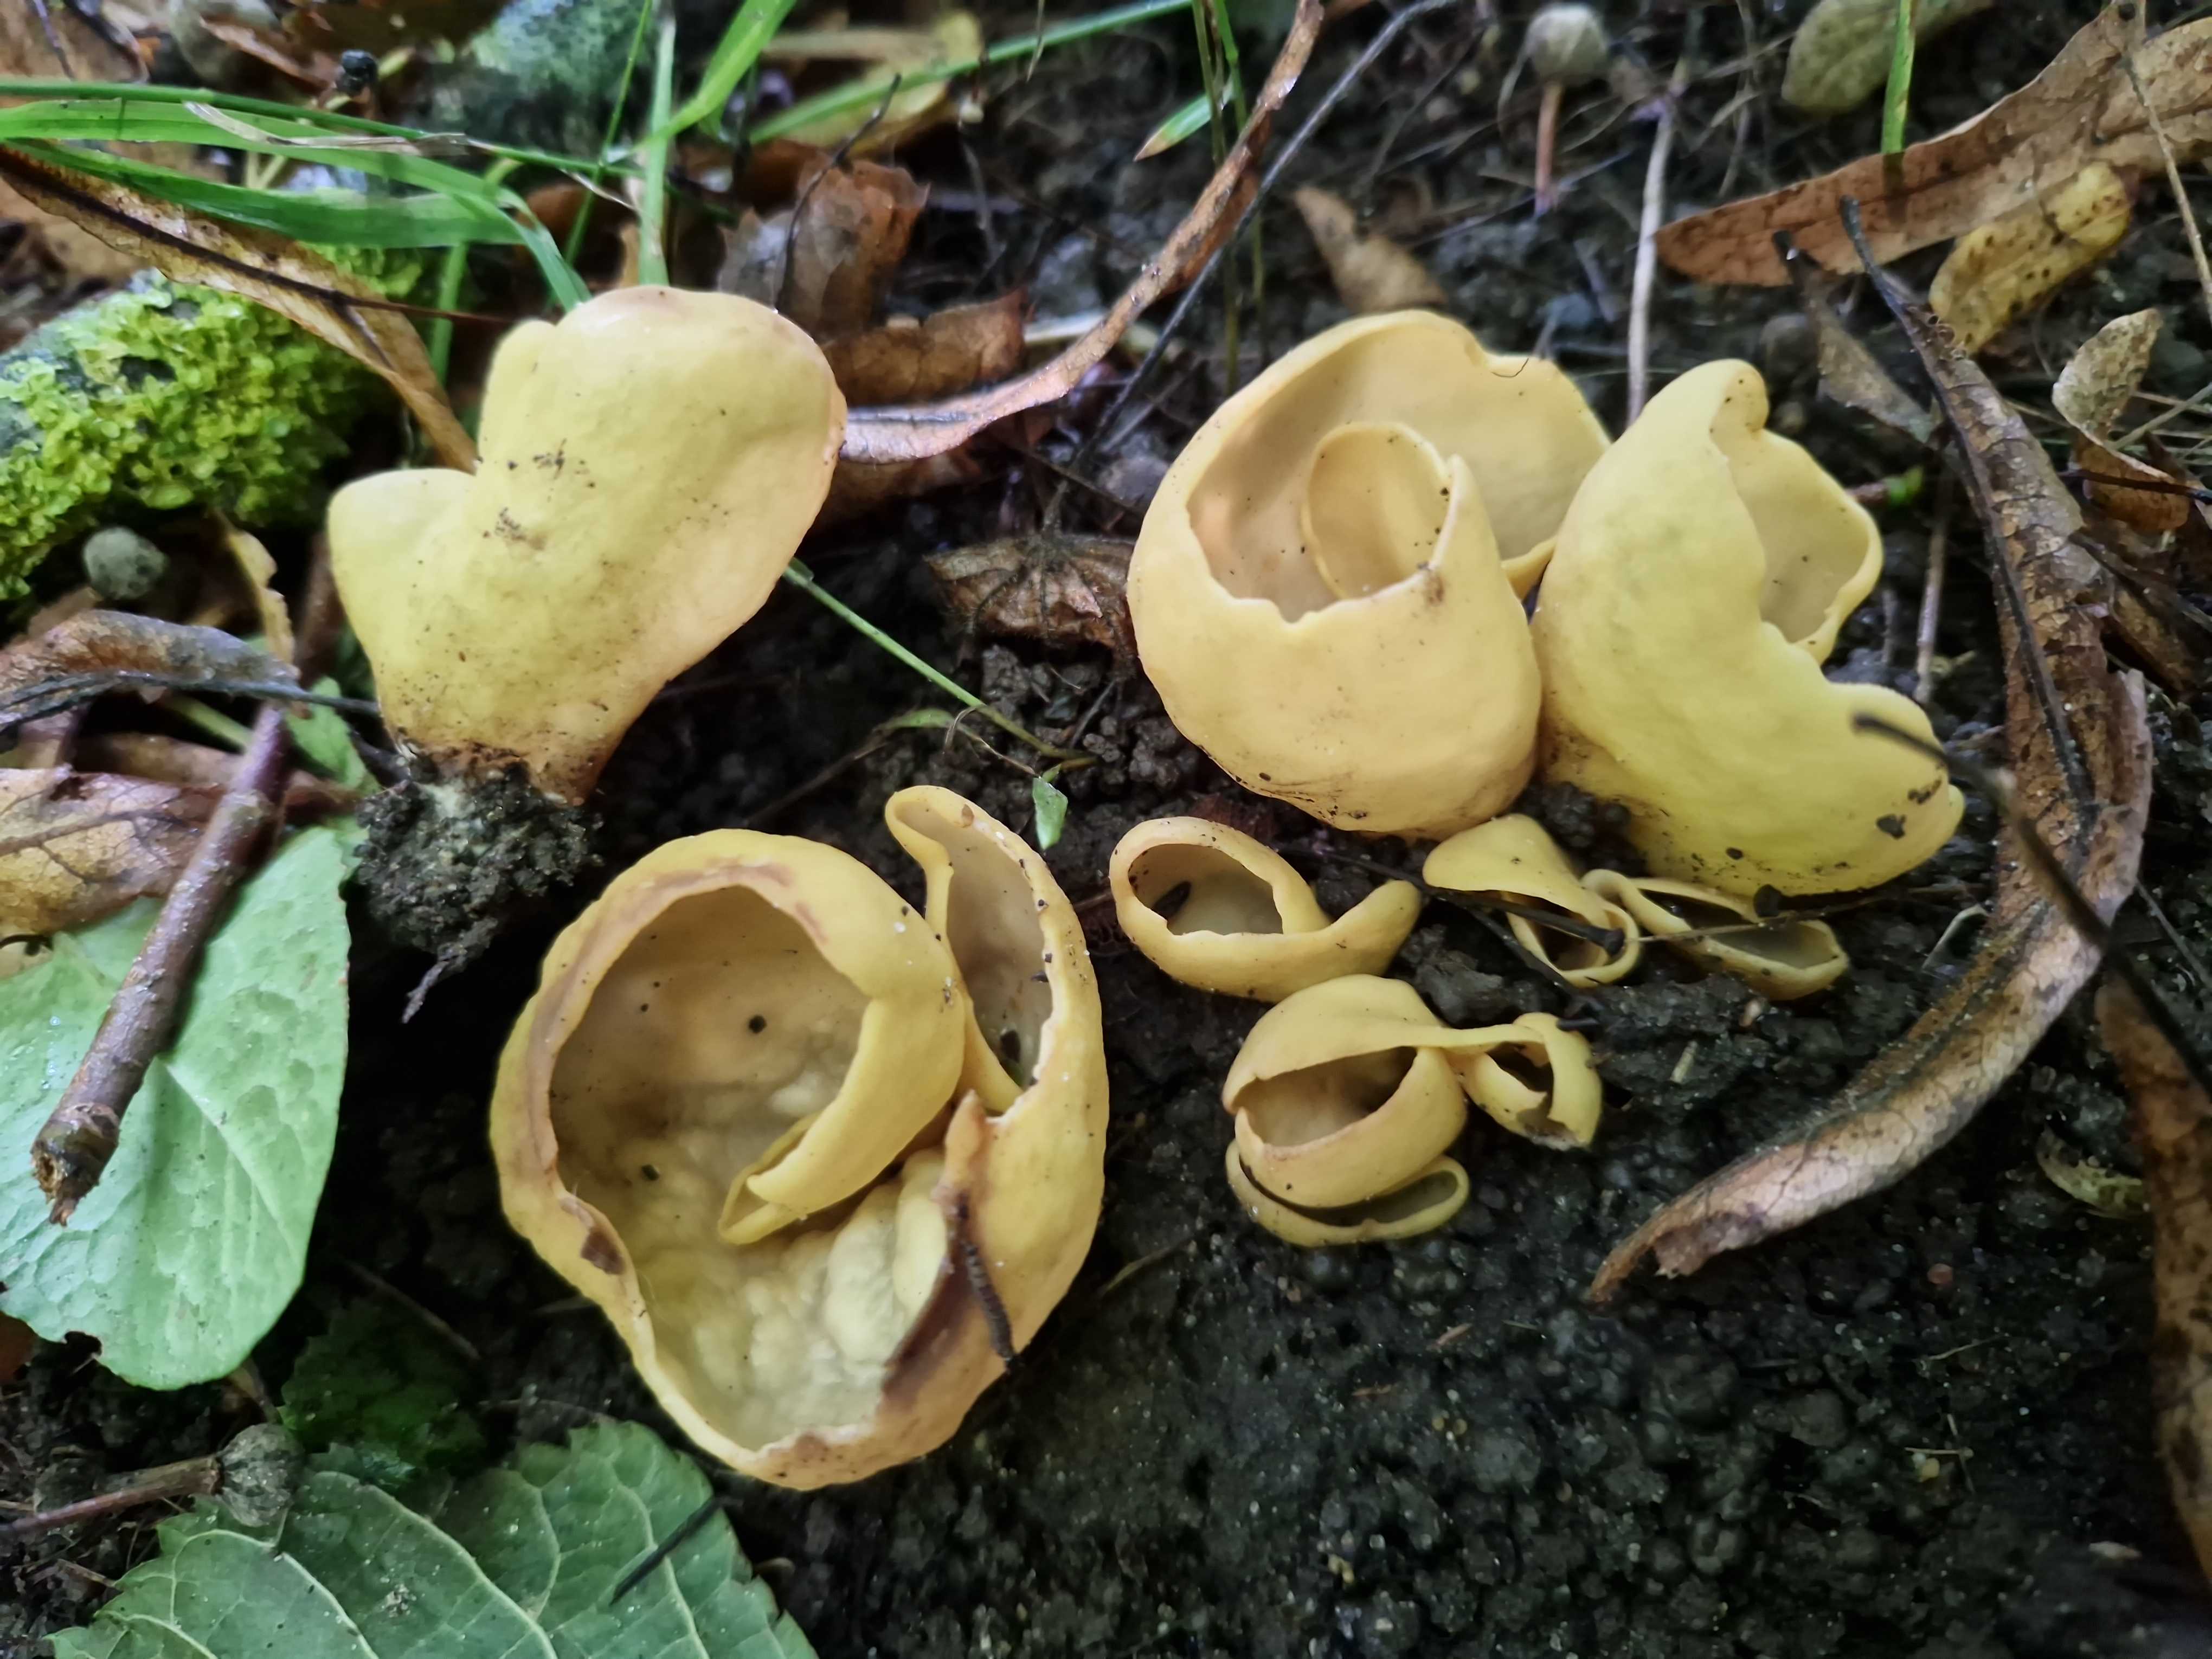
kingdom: Fungi
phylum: Ascomycota
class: Pezizomycetes
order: Pezizales
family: Otideaceae
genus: Otidea
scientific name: Otidea cantharella
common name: citrongul ørebæger
